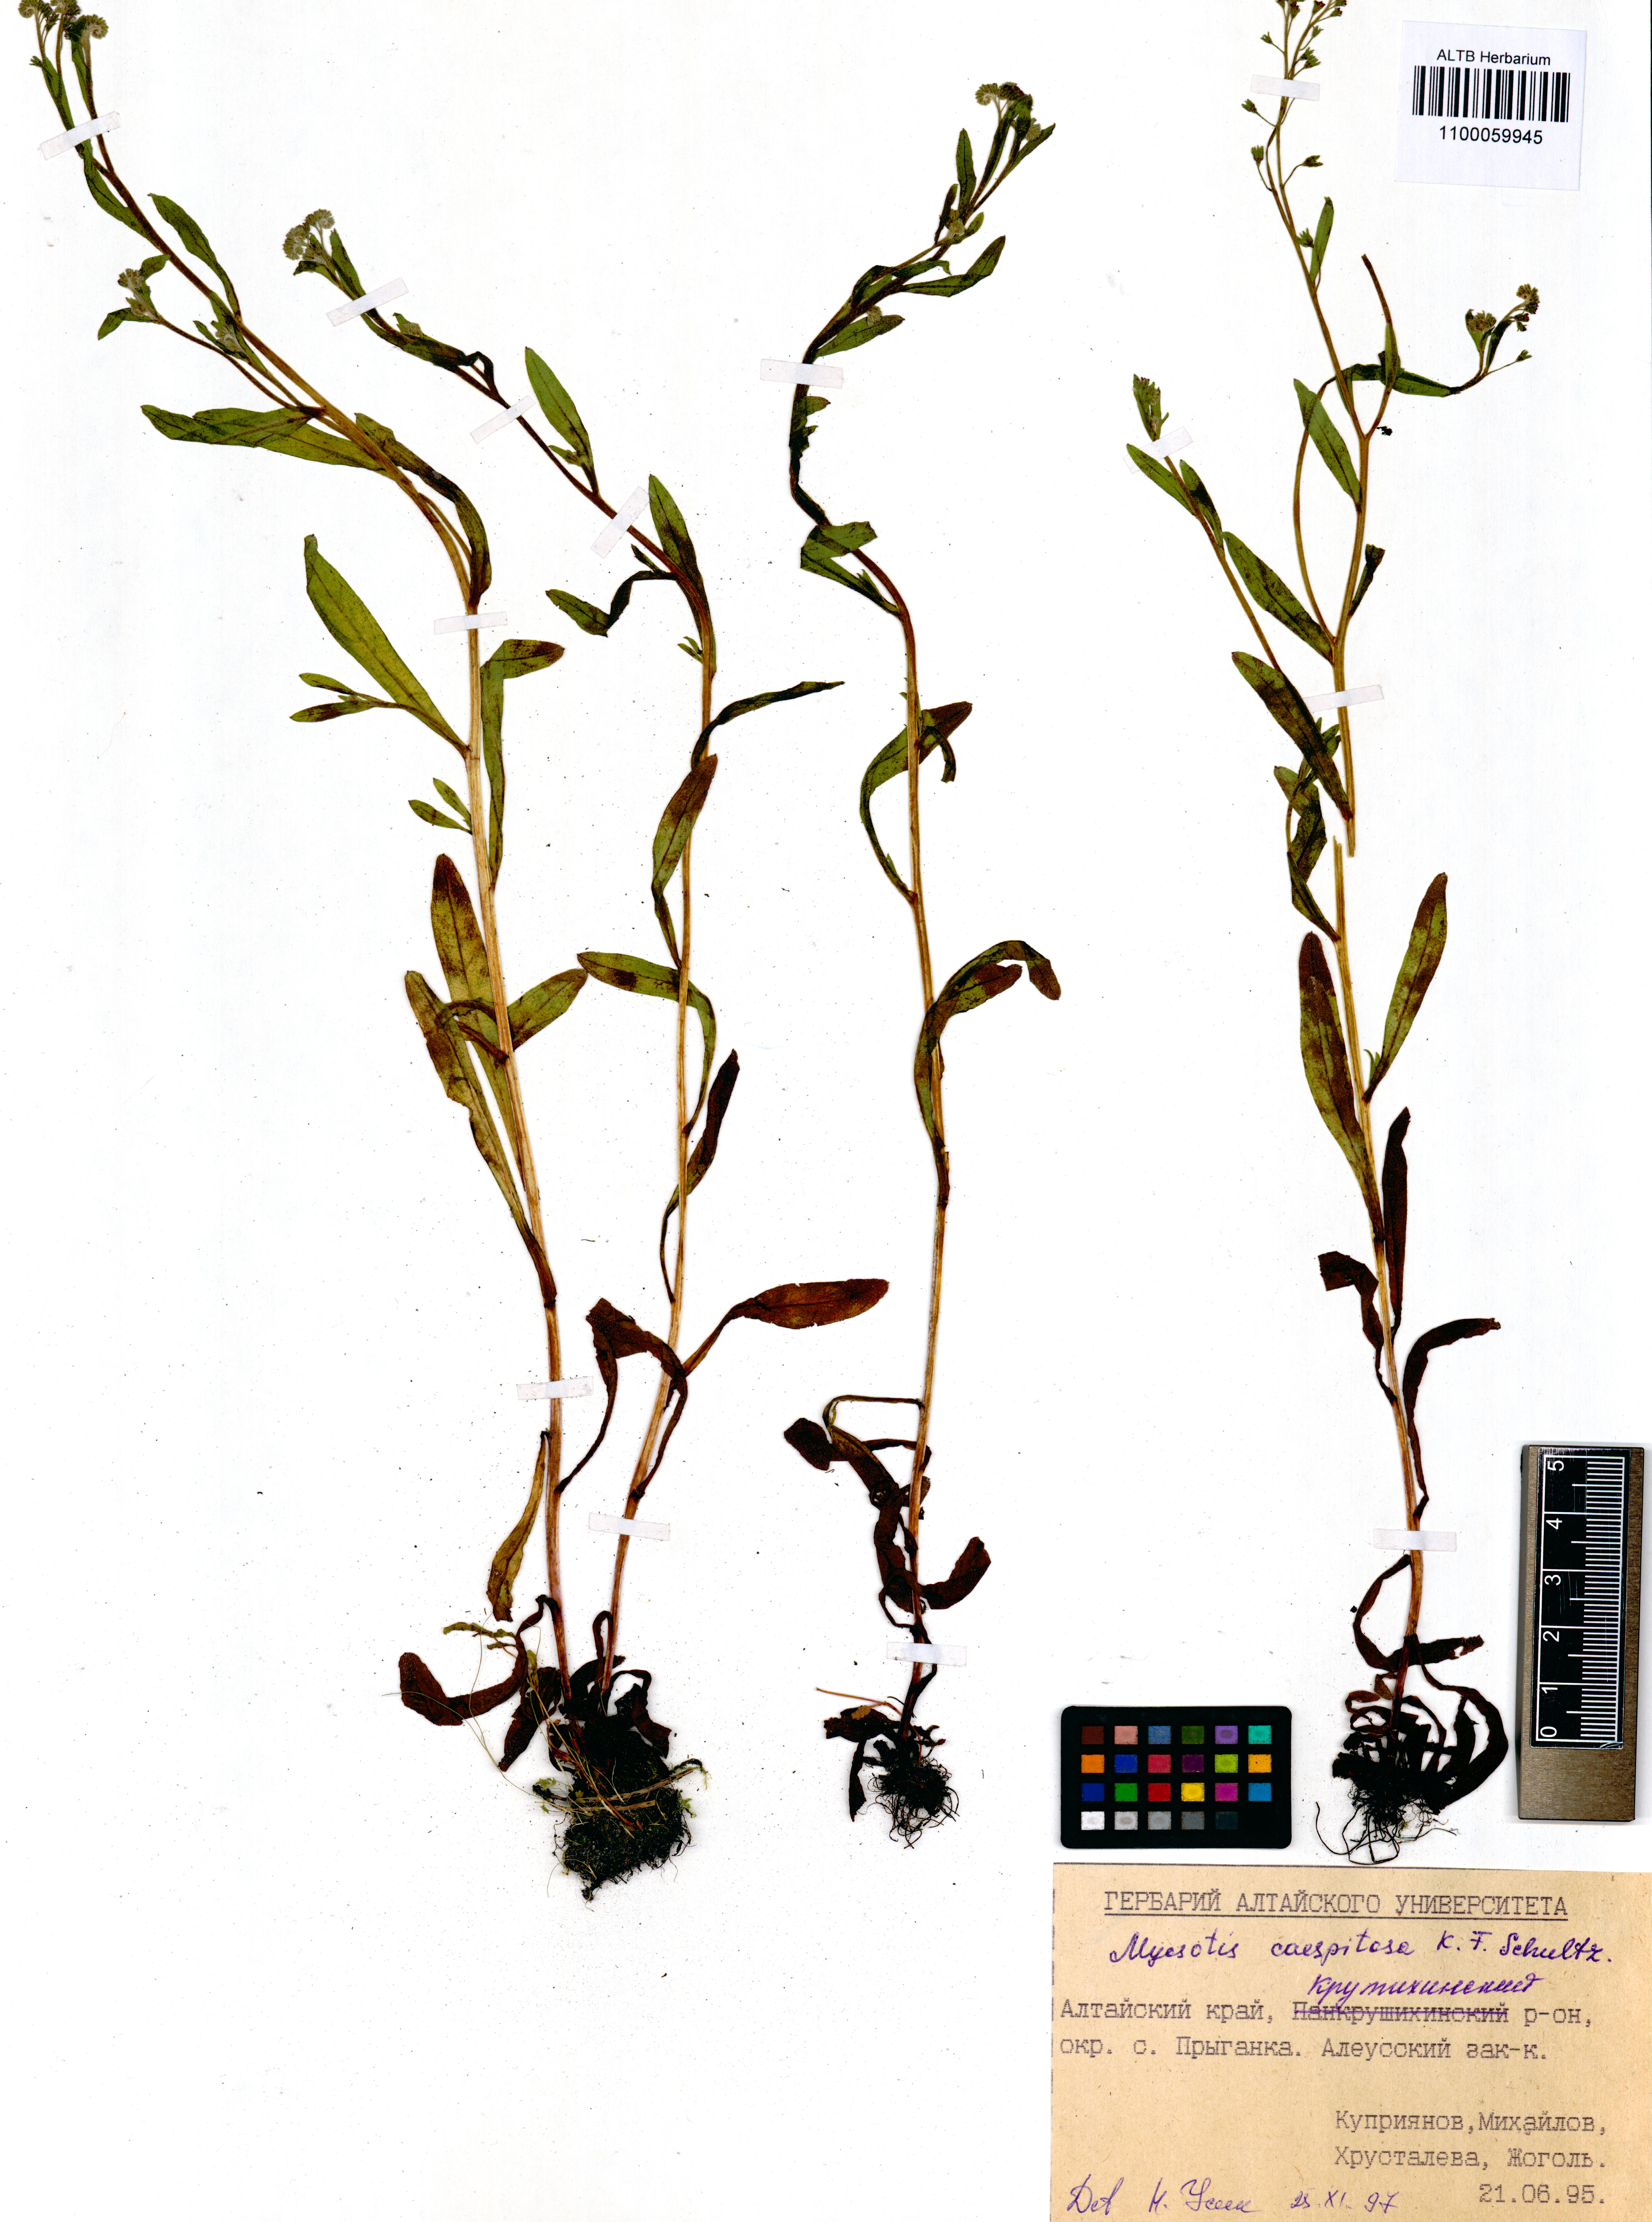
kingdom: Plantae
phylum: Tracheophyta
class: Magnoliopsida
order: Boraginales
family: Boraginaceae
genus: Myosotis
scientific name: Myosotis laxa
